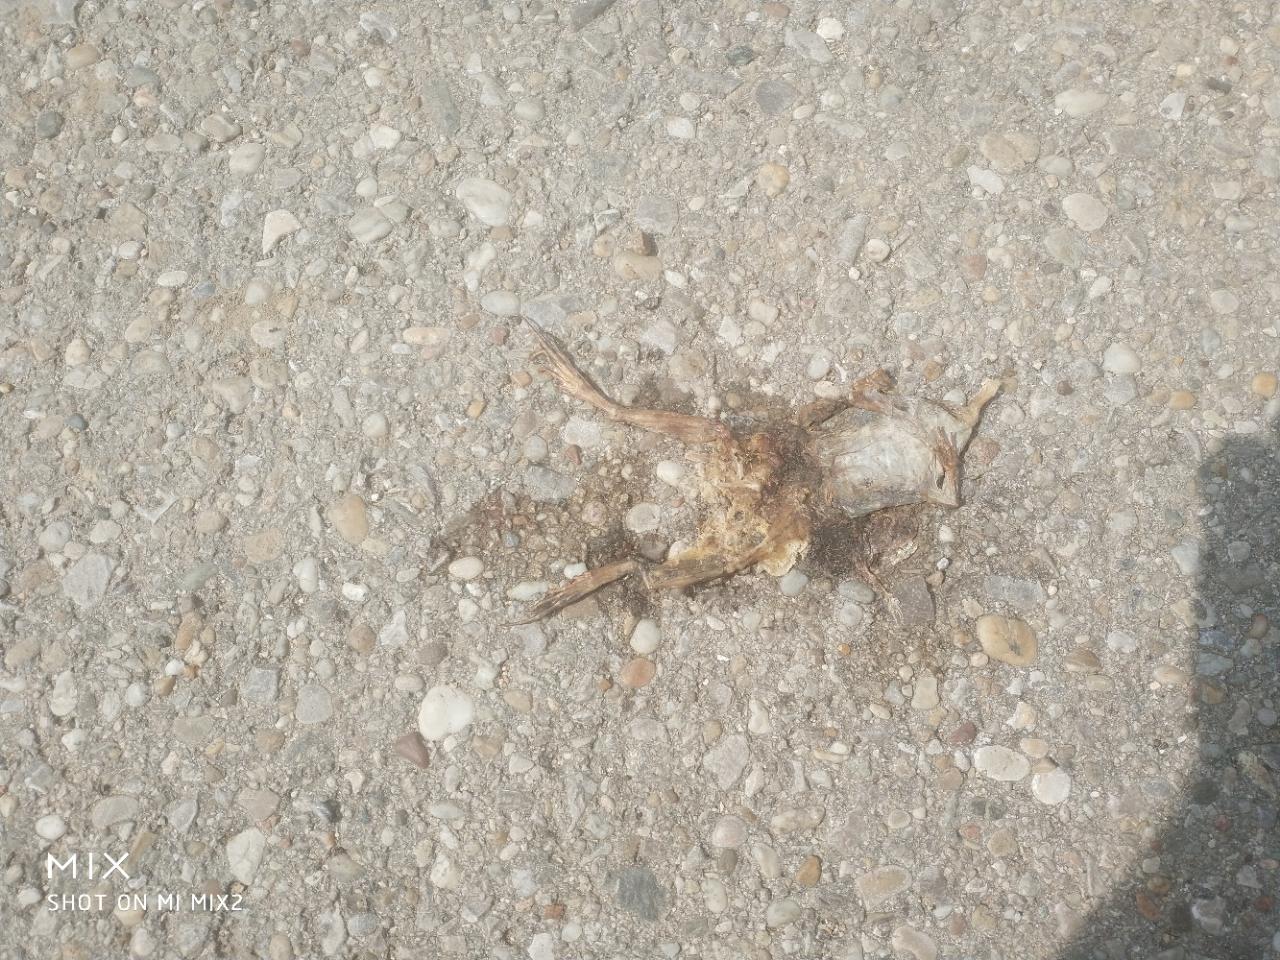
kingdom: Animalia
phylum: Chordata
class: Amphibia
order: Anura
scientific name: Anura
